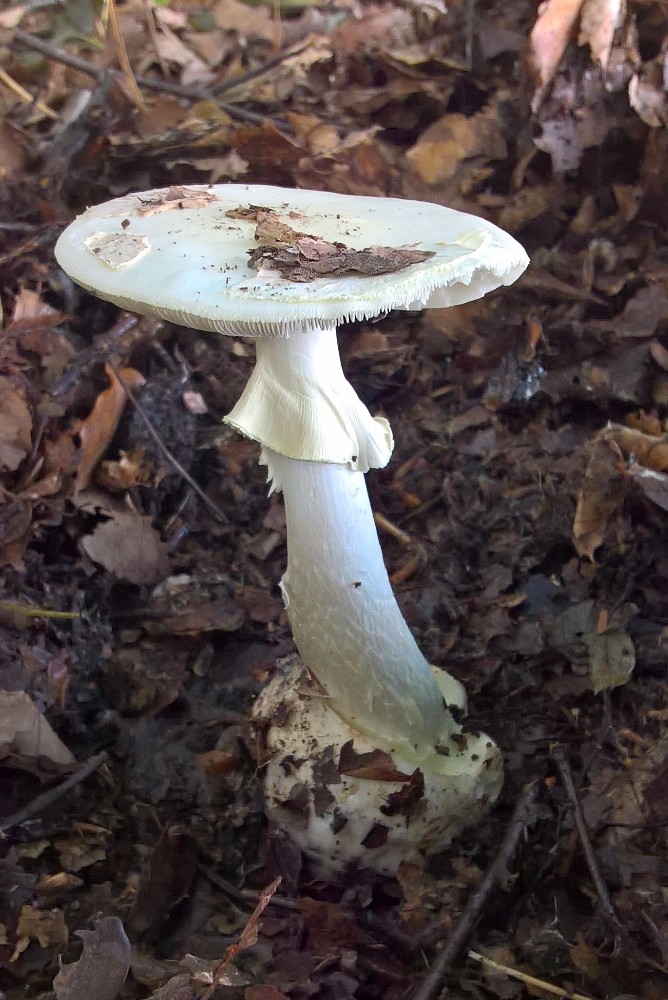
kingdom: Fungi
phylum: Basidiomycota
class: Agaricomycetes
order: Agaricales
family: Amanitaceae
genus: Amanita
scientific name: Amanita citrina
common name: False death-cap
